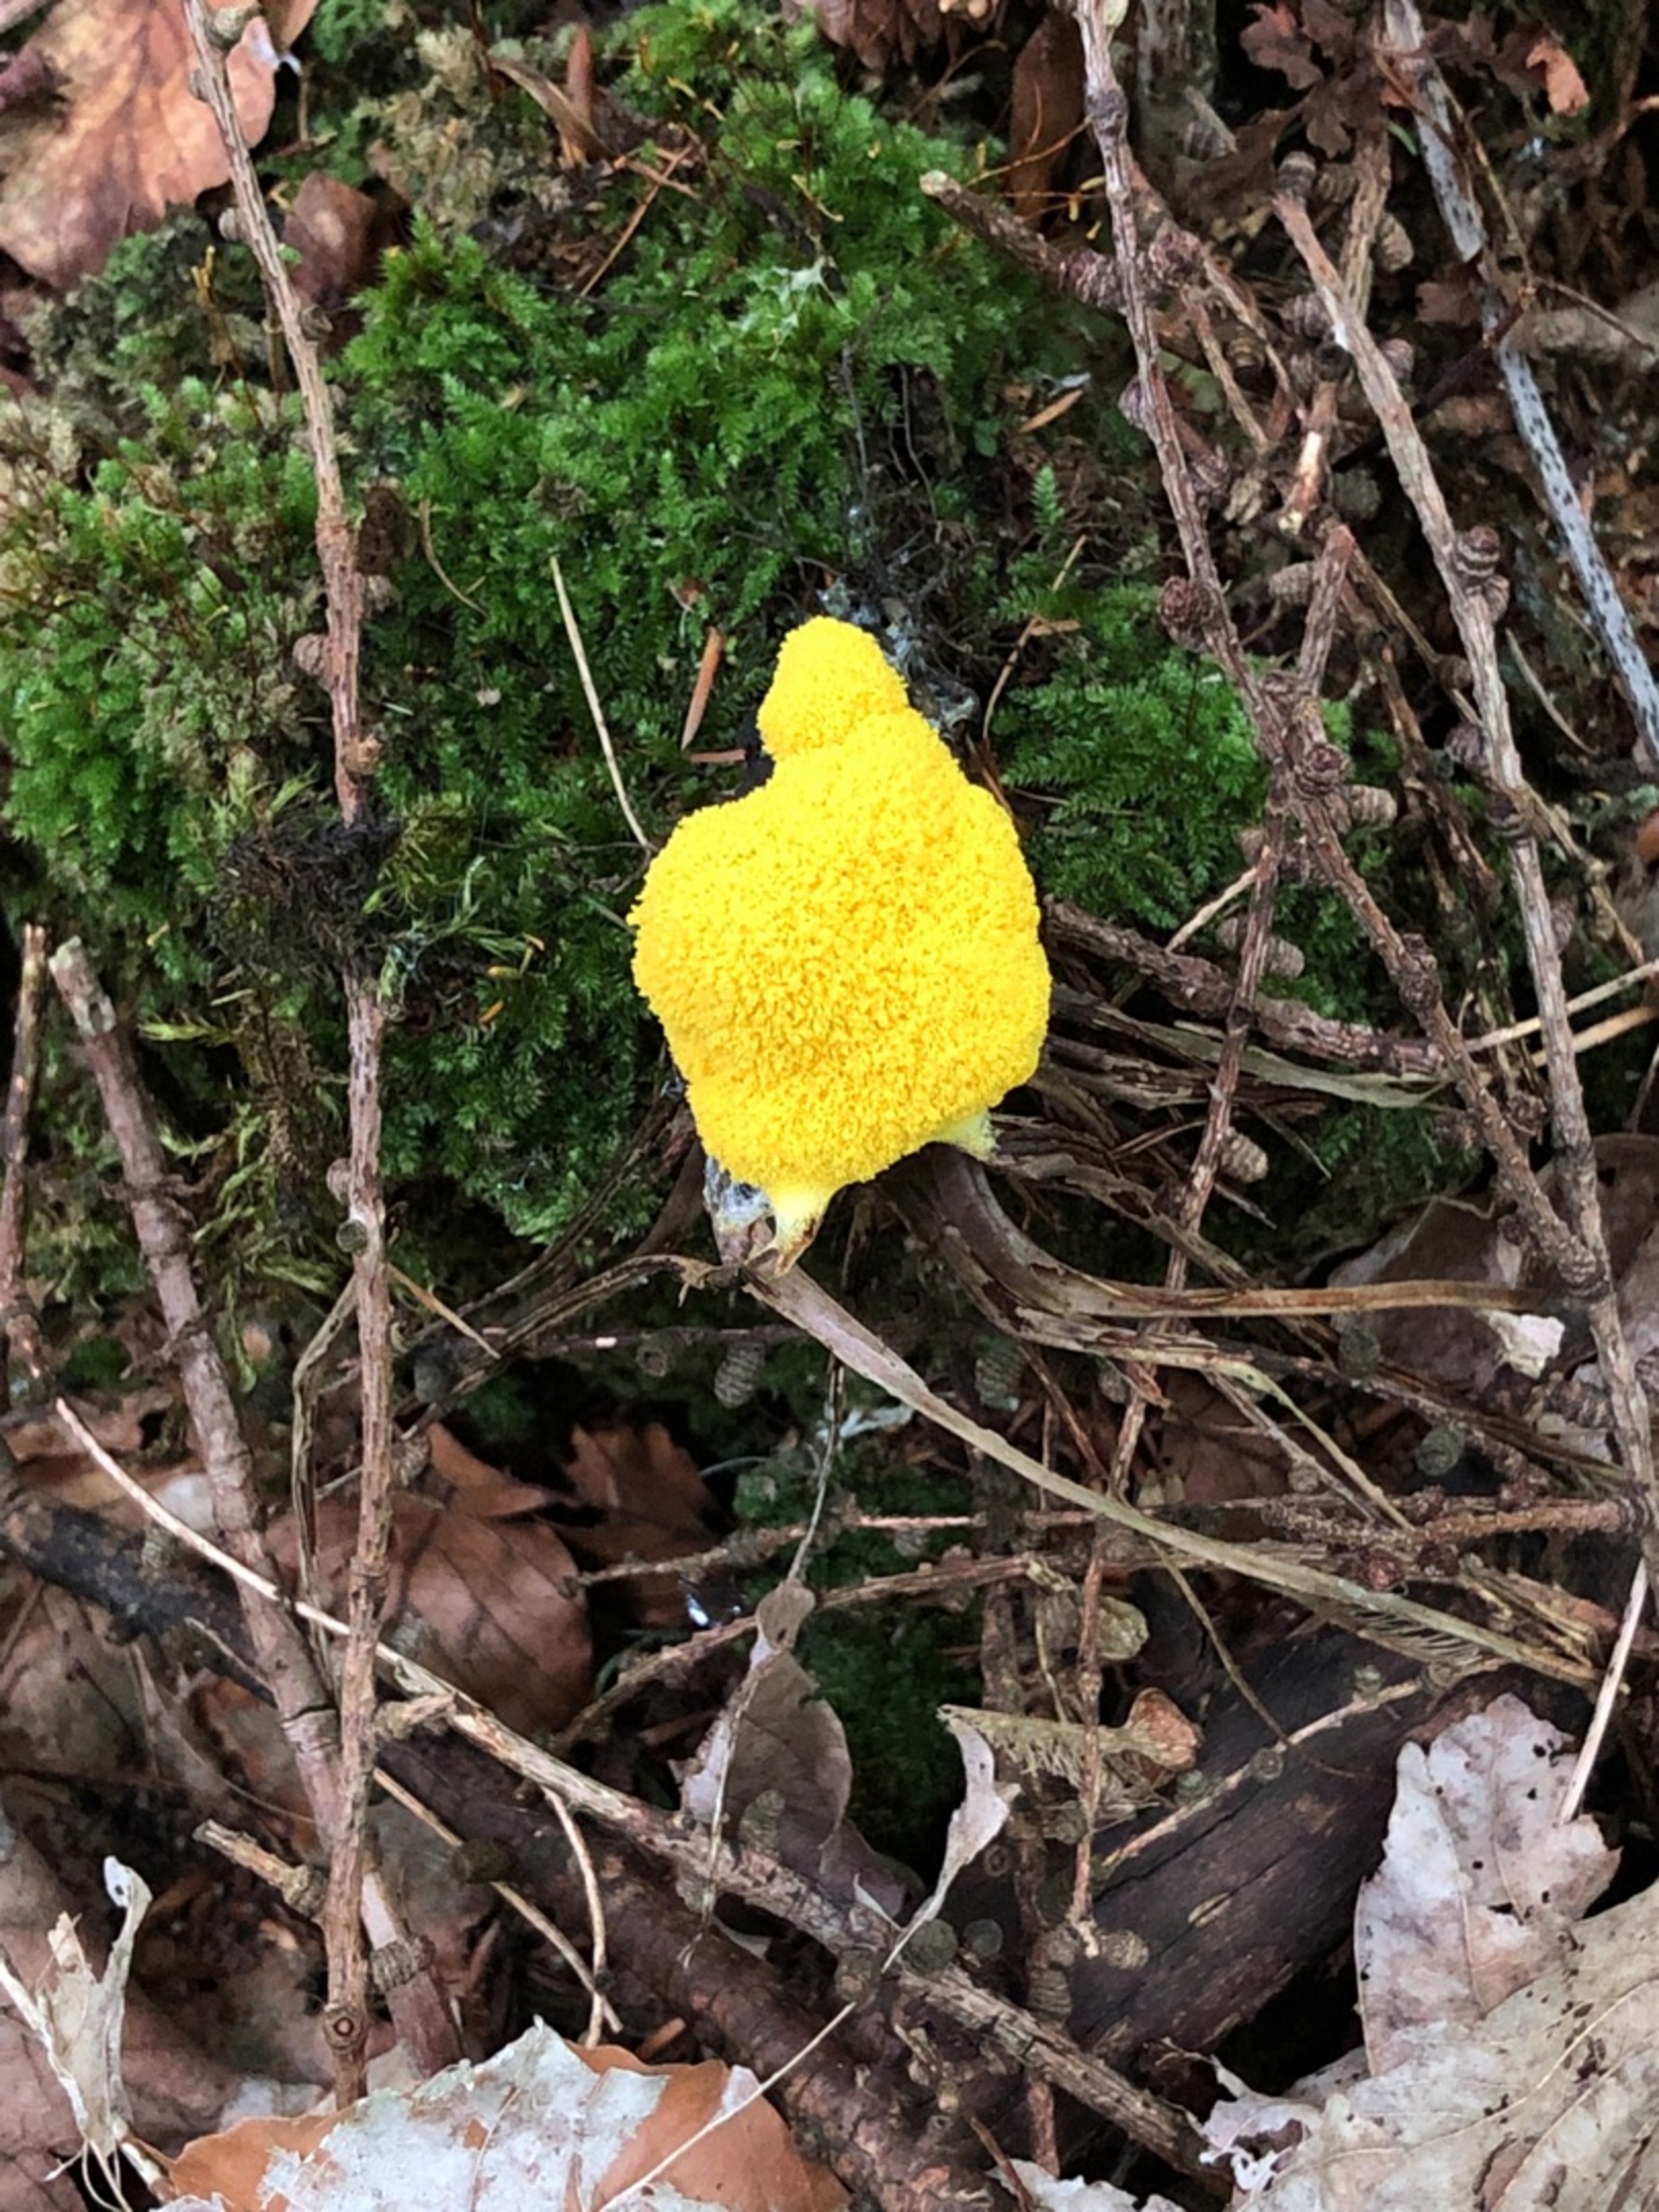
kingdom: Protozoa
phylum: Mycetozoa
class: Myxomycetes
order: Physarales
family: Physaraceae
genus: Fuligo
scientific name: Fuligo septica
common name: Gul troldsmør
